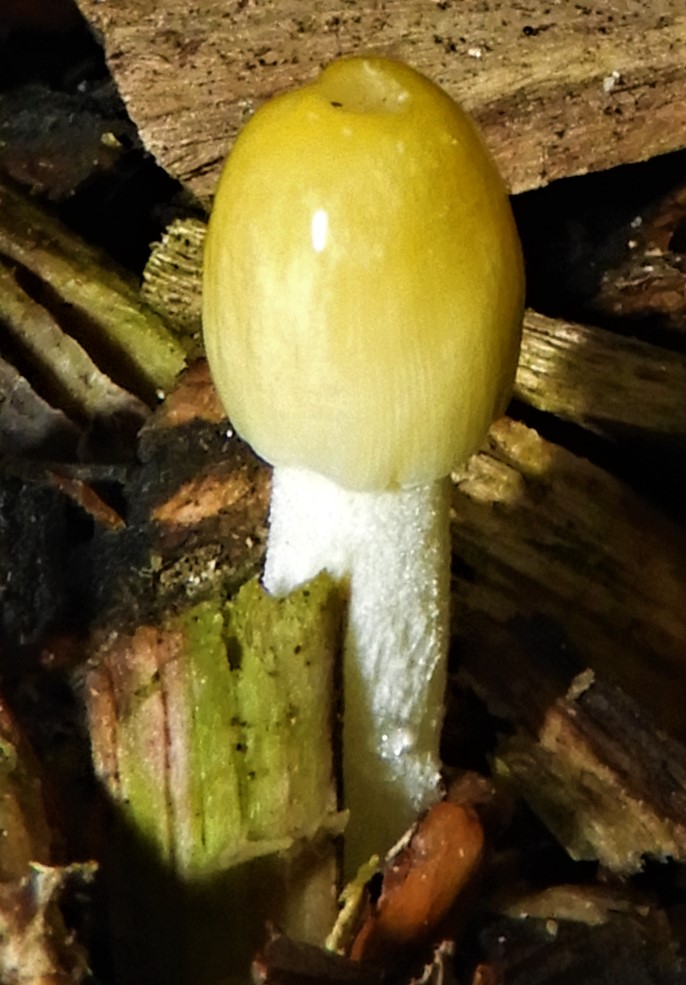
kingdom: Fungi
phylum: Basidiomycota
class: Agaricomycetes
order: Agaricales
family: Bolbitiaceae
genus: Bolbitius
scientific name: Bolbitius titubans
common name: almindelig gulhat
